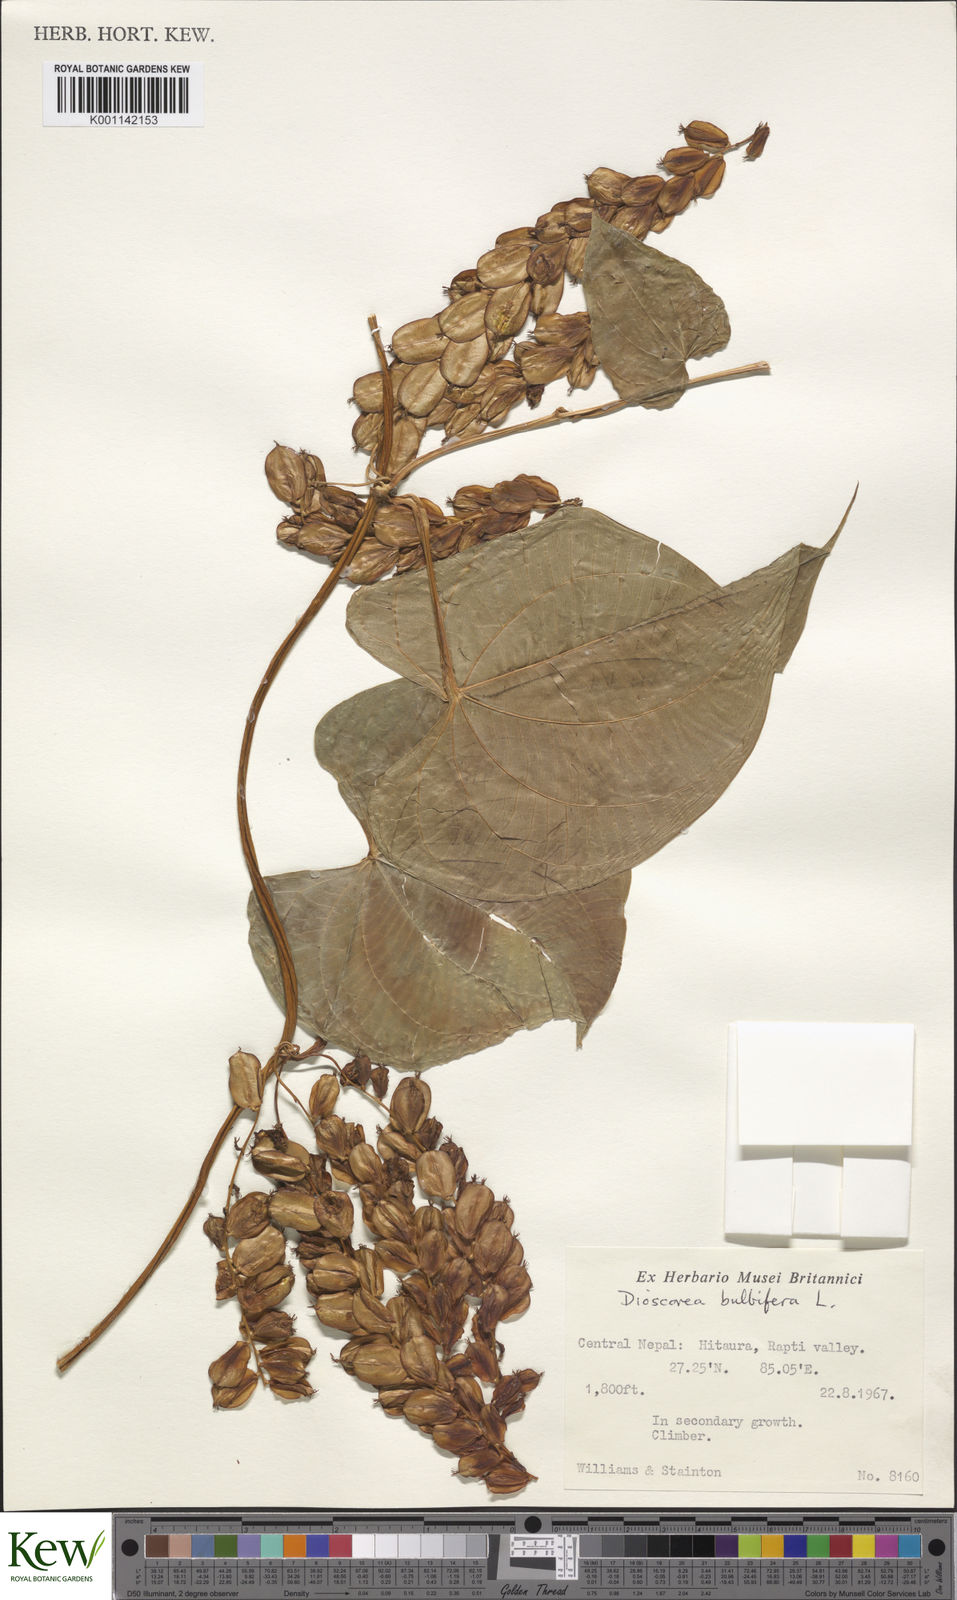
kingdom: Plantae
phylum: Tracheophyta
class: Liliopsida
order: Dioscoreales
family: Dioscoreaceae
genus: Dioscorea
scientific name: Dioscorea bulbifera
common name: Air yam
